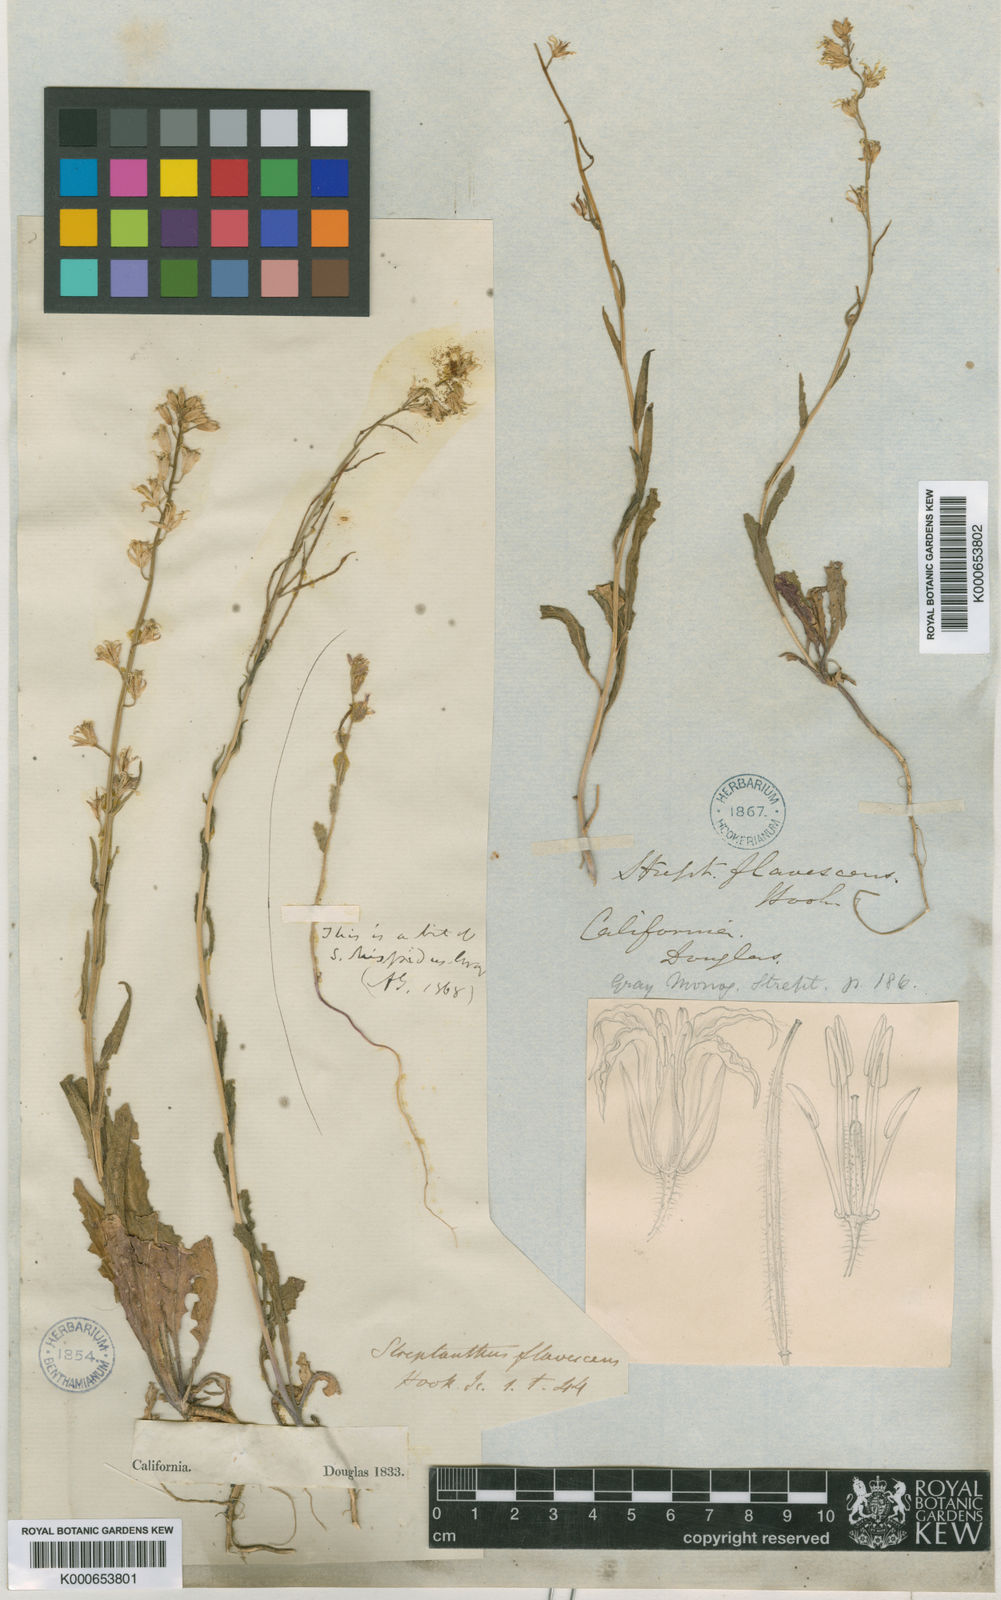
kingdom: Plantae
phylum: Tracheophyta
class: Magnoliopsida
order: Brassicales
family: Brassicaceae
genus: Streptanthus
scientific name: Streptanthus flavescens
